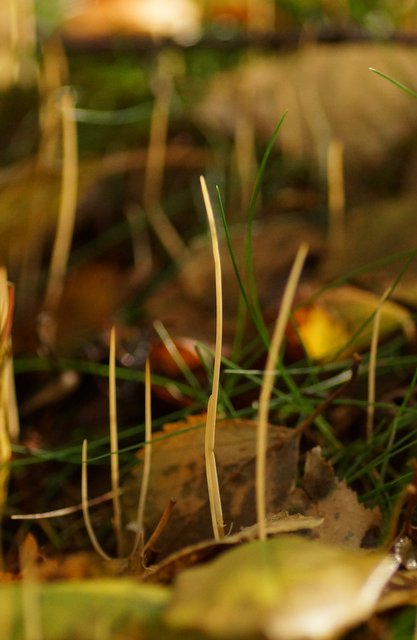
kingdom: Fungi
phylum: Basidiomycota
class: Agaricomycetes
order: Agaricales
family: Typhulaceae
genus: Typhula
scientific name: Typhula juncea
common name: trådagtig rørkølle
